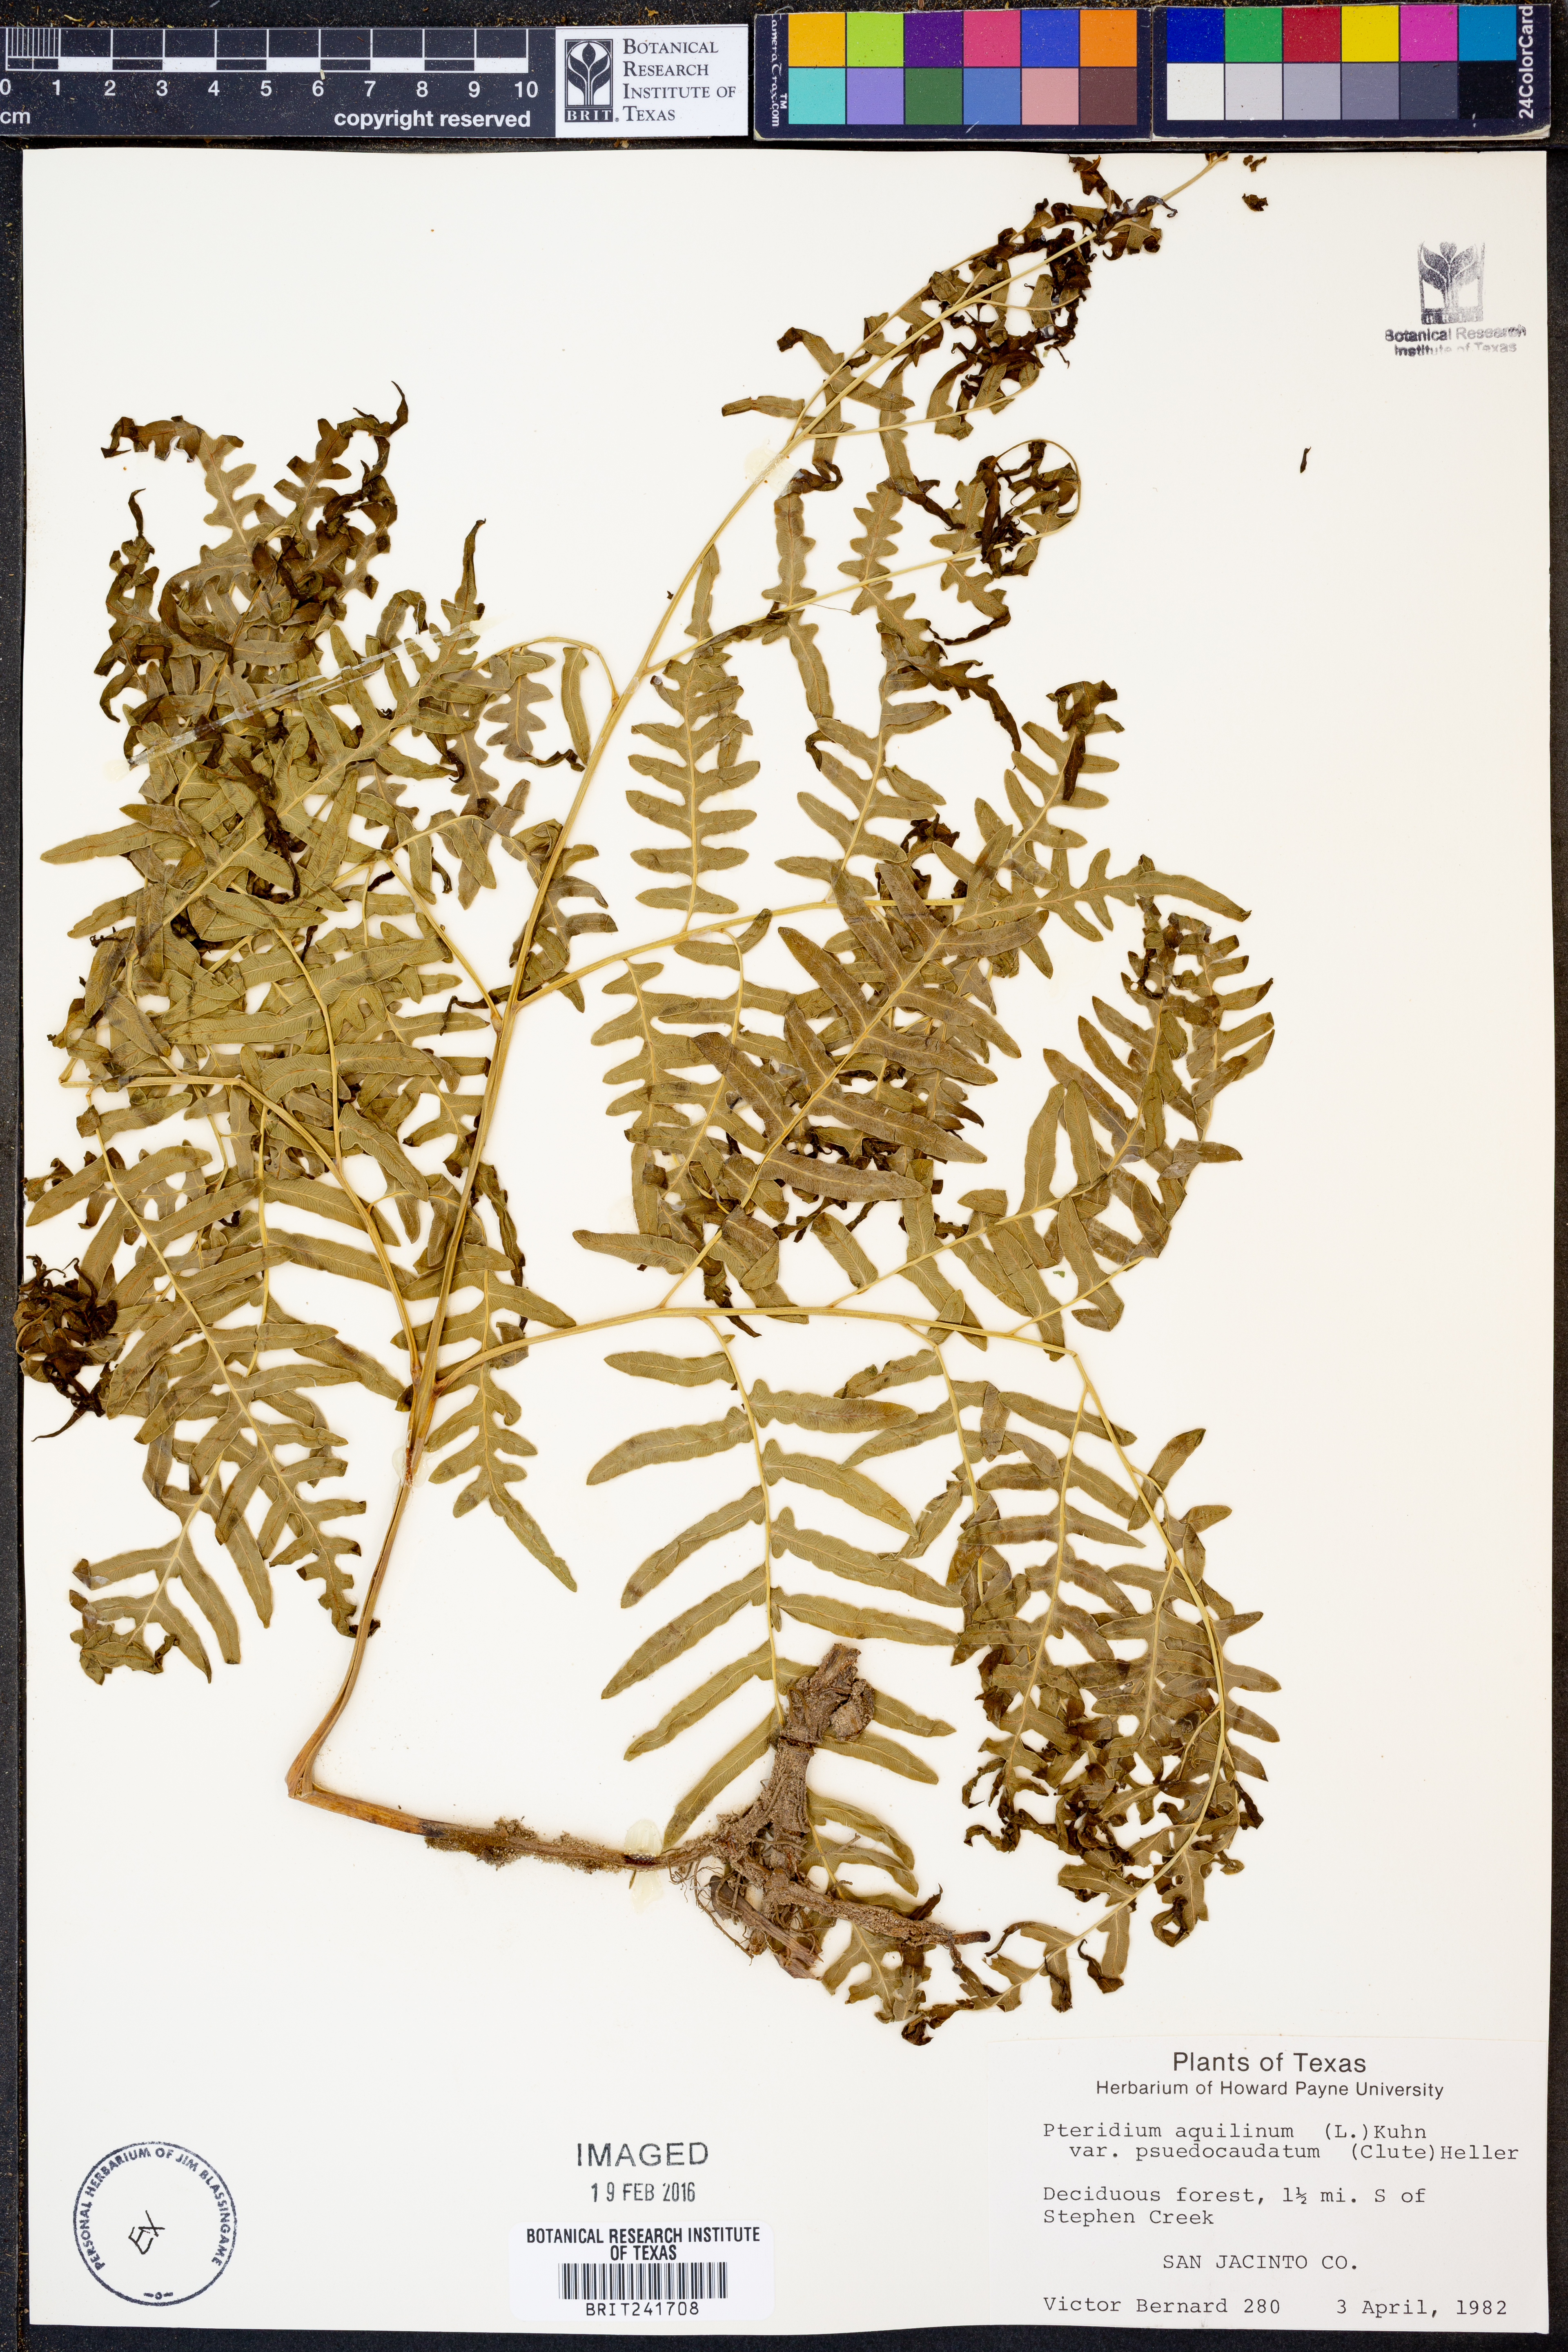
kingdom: Plantae
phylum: Tracheophyta
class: Polypodiopsida
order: Polypodiales
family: Dennstaedtiaceae
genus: Pteridium
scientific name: Pteridium aquilinum
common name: Bracken
